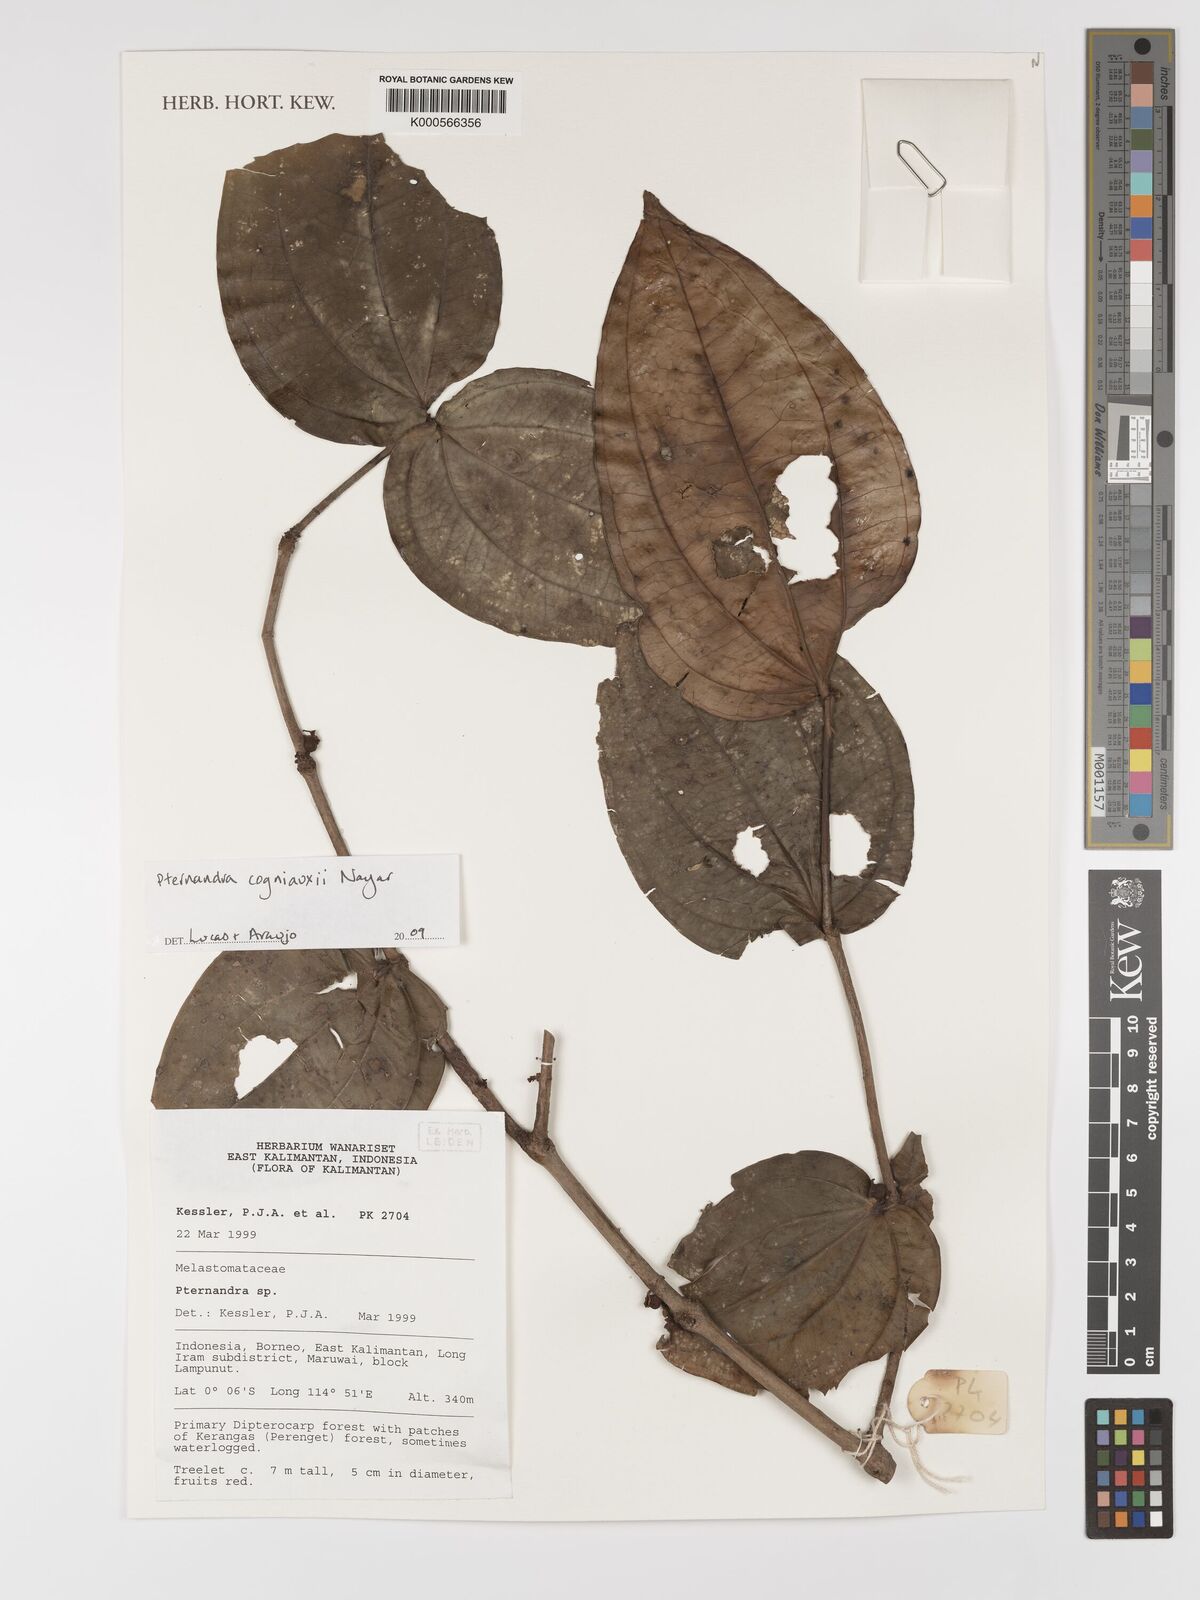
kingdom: Plantae
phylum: Tracheophyta
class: Magnoliopsida
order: Myrtales
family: Melastomataceae
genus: Pternandra
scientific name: Pternandra cogniauxii
